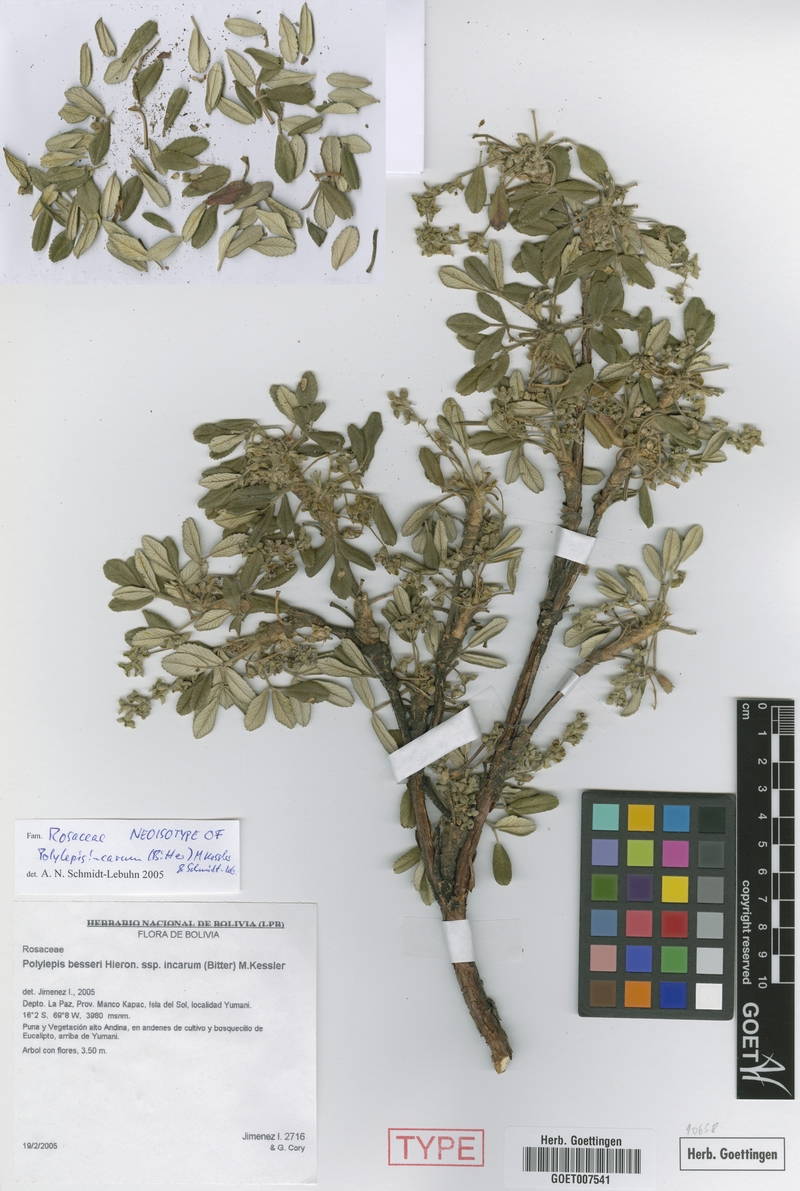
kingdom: Plantae
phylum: Tracheophyta
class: Magnoliopsida
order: Rosales
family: Rosaceae
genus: Polylepis
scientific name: Polylepis incarum
